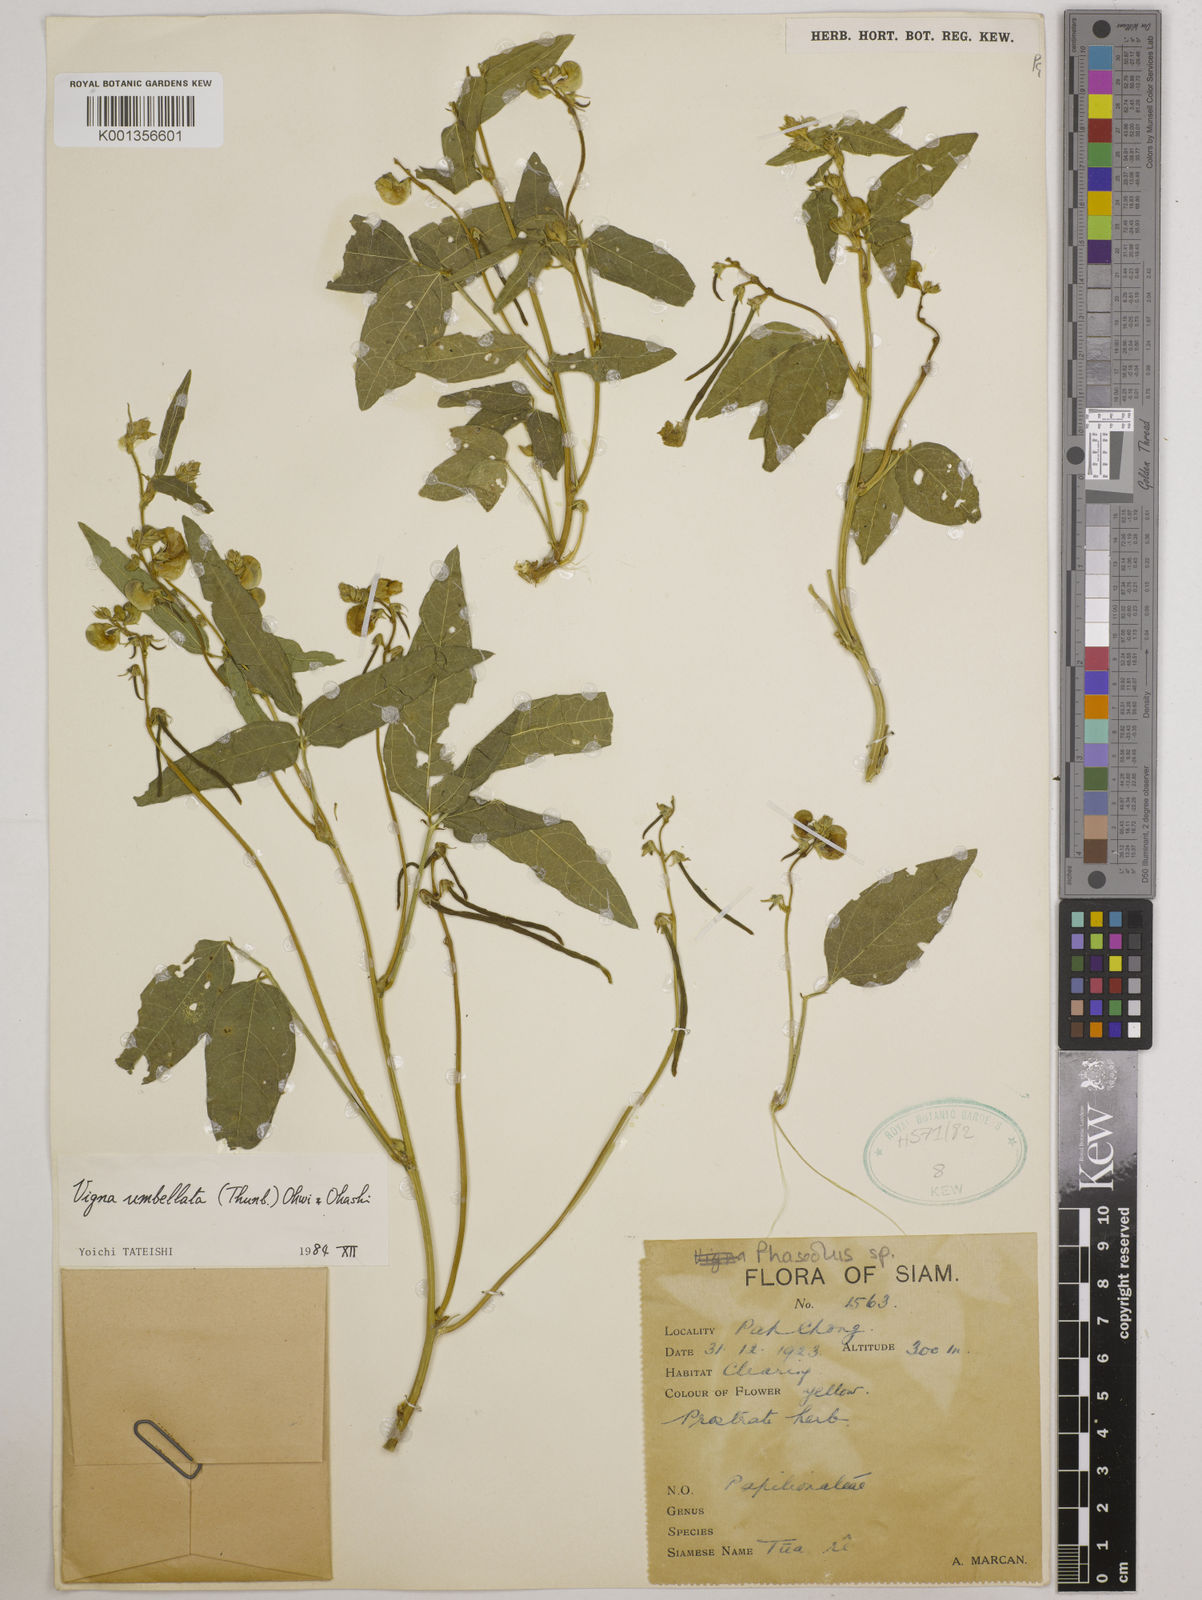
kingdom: Plantae
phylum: Tracheophyta
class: Magnoliopsida
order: Fabales
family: Fabaceae
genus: Vigna
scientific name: Vigna umbellata
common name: Oriental-bean
